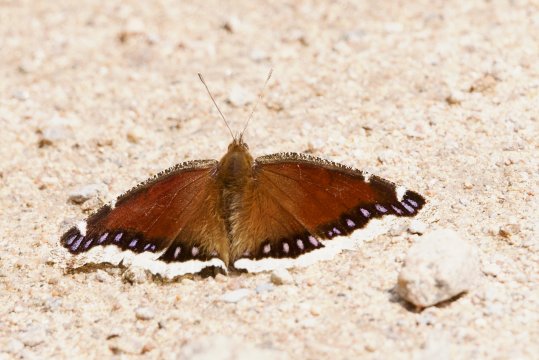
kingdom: Animalia
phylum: Arthropoda
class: Insecta
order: Lepidoptera
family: Nymphalidae
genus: Nymphalis
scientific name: Nymphalis antiopa
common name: Mourning Cloak
